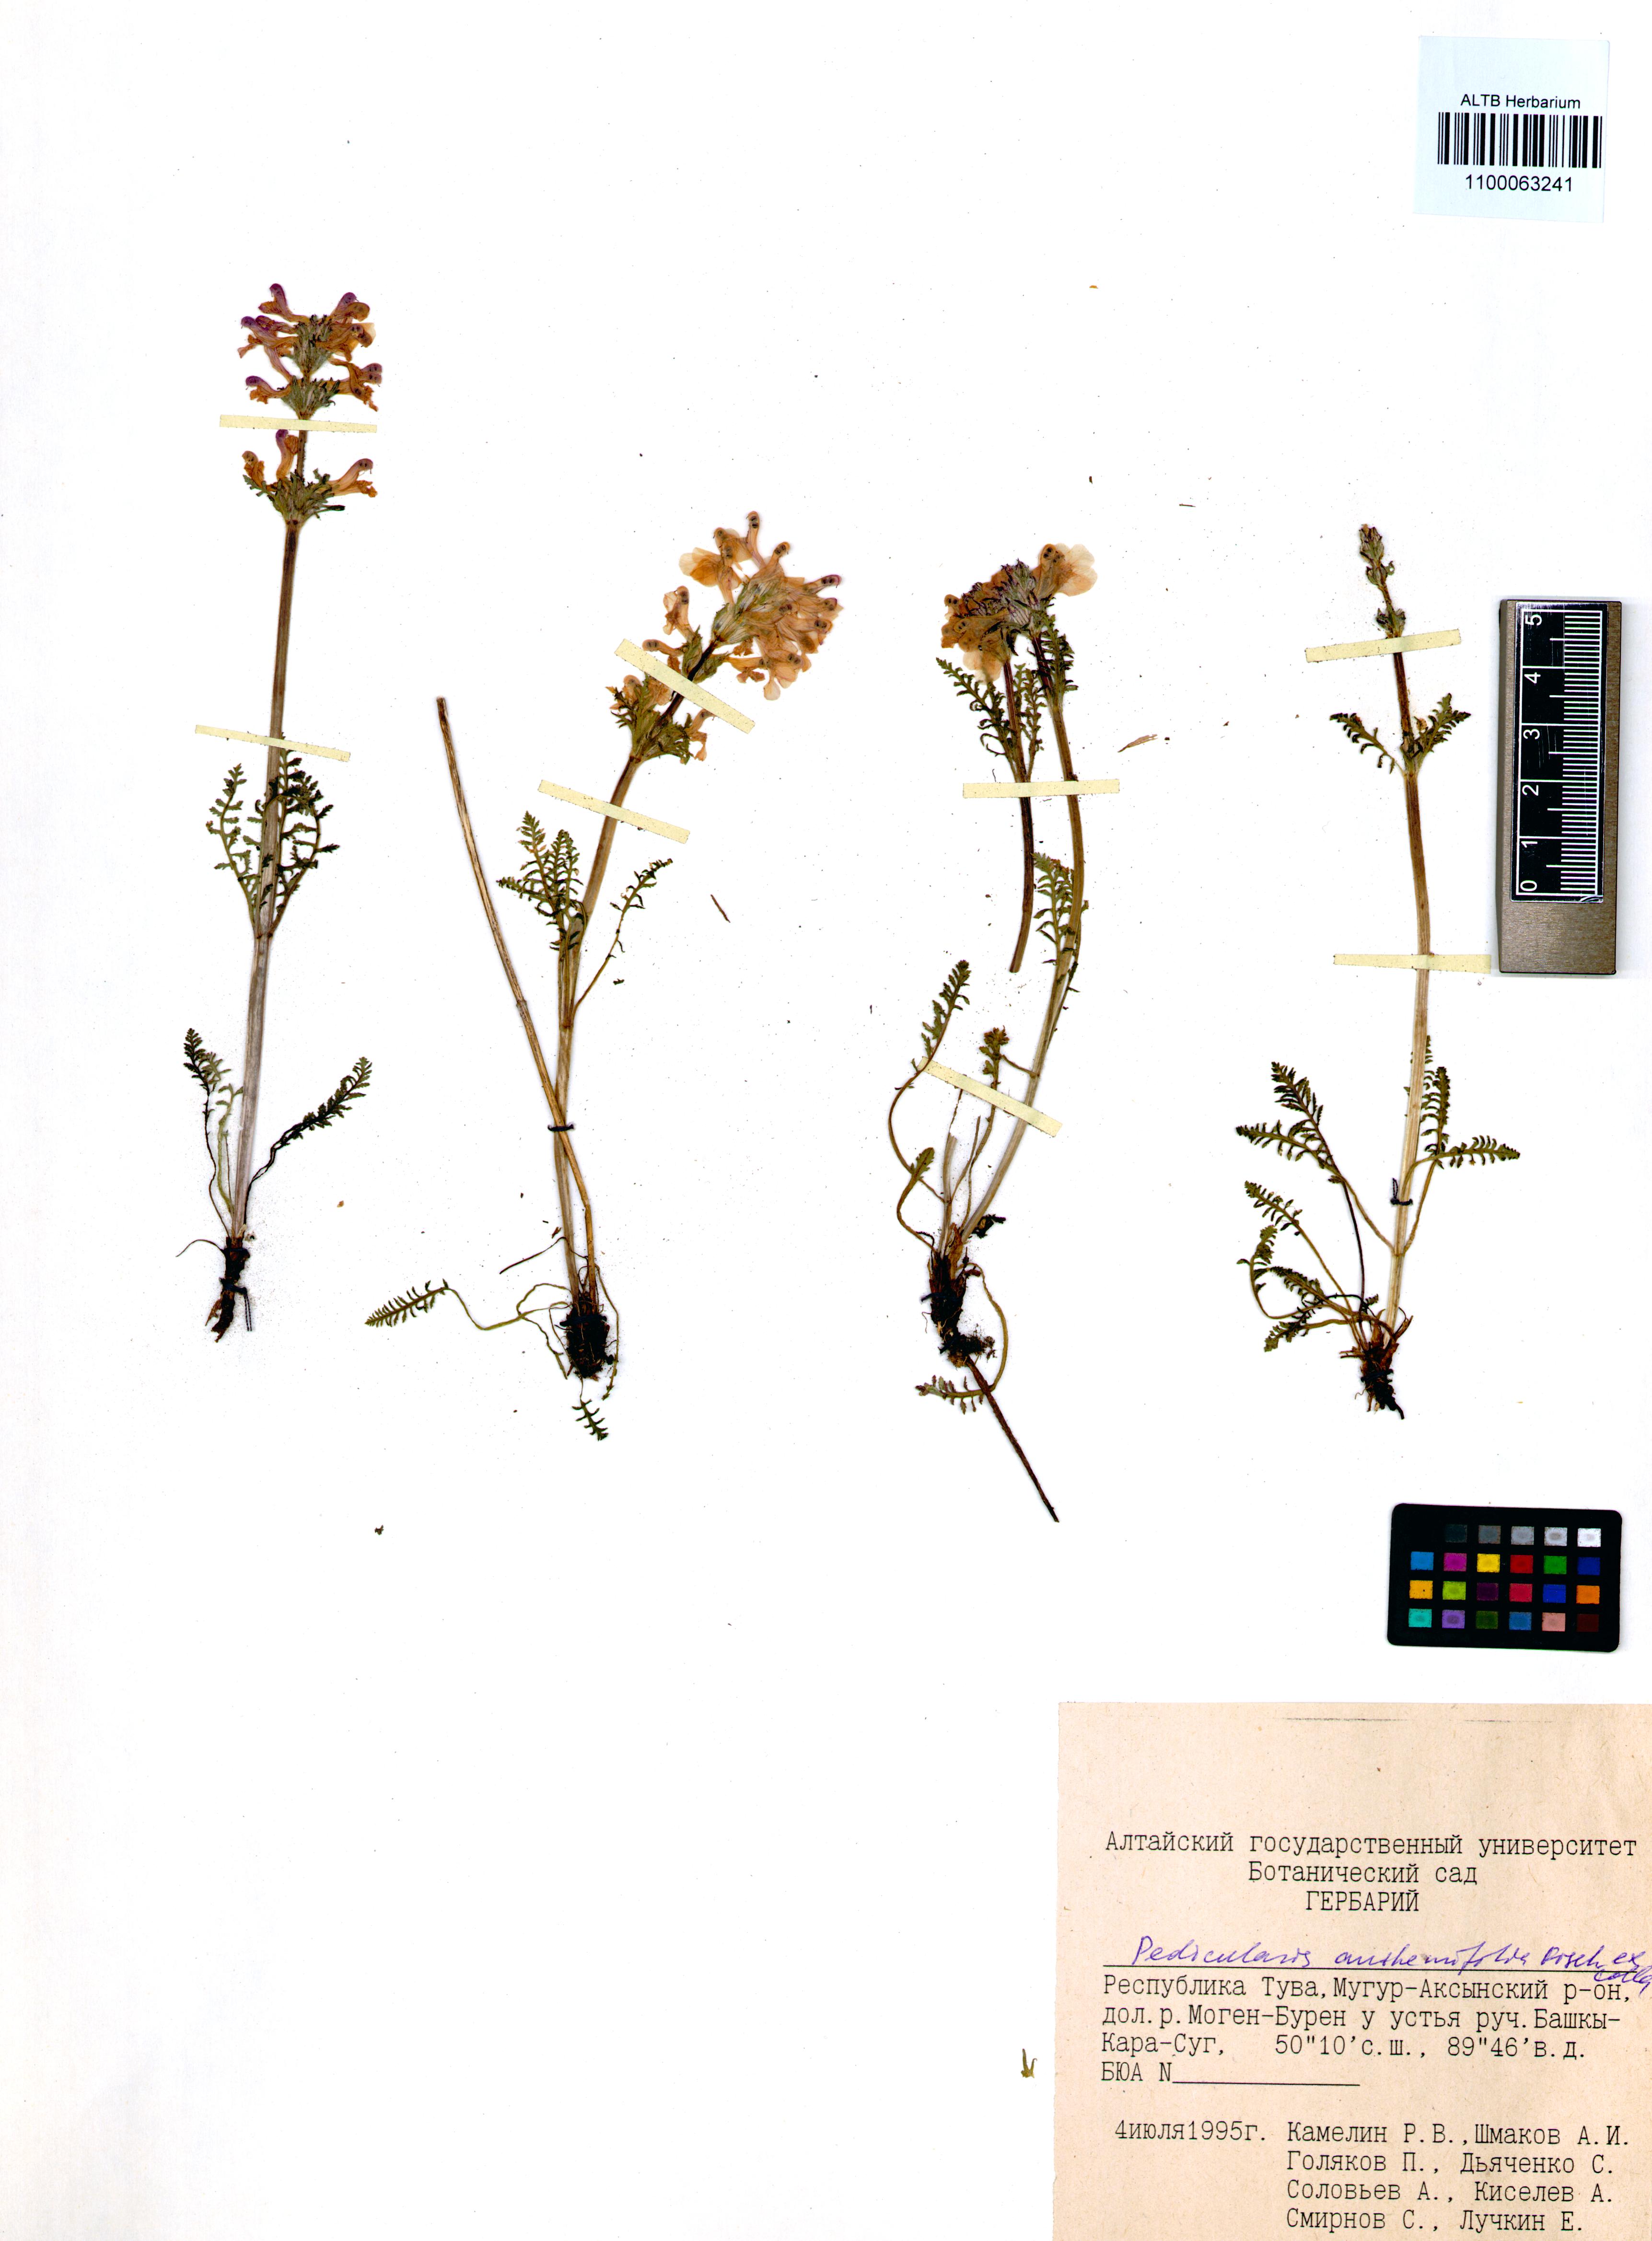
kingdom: Plantae
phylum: Tracheophyta
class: Magnoliopsida
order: Lamiales
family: Orobanchaceae
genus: Pedicularis
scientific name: Pedicularis anthemifolia
